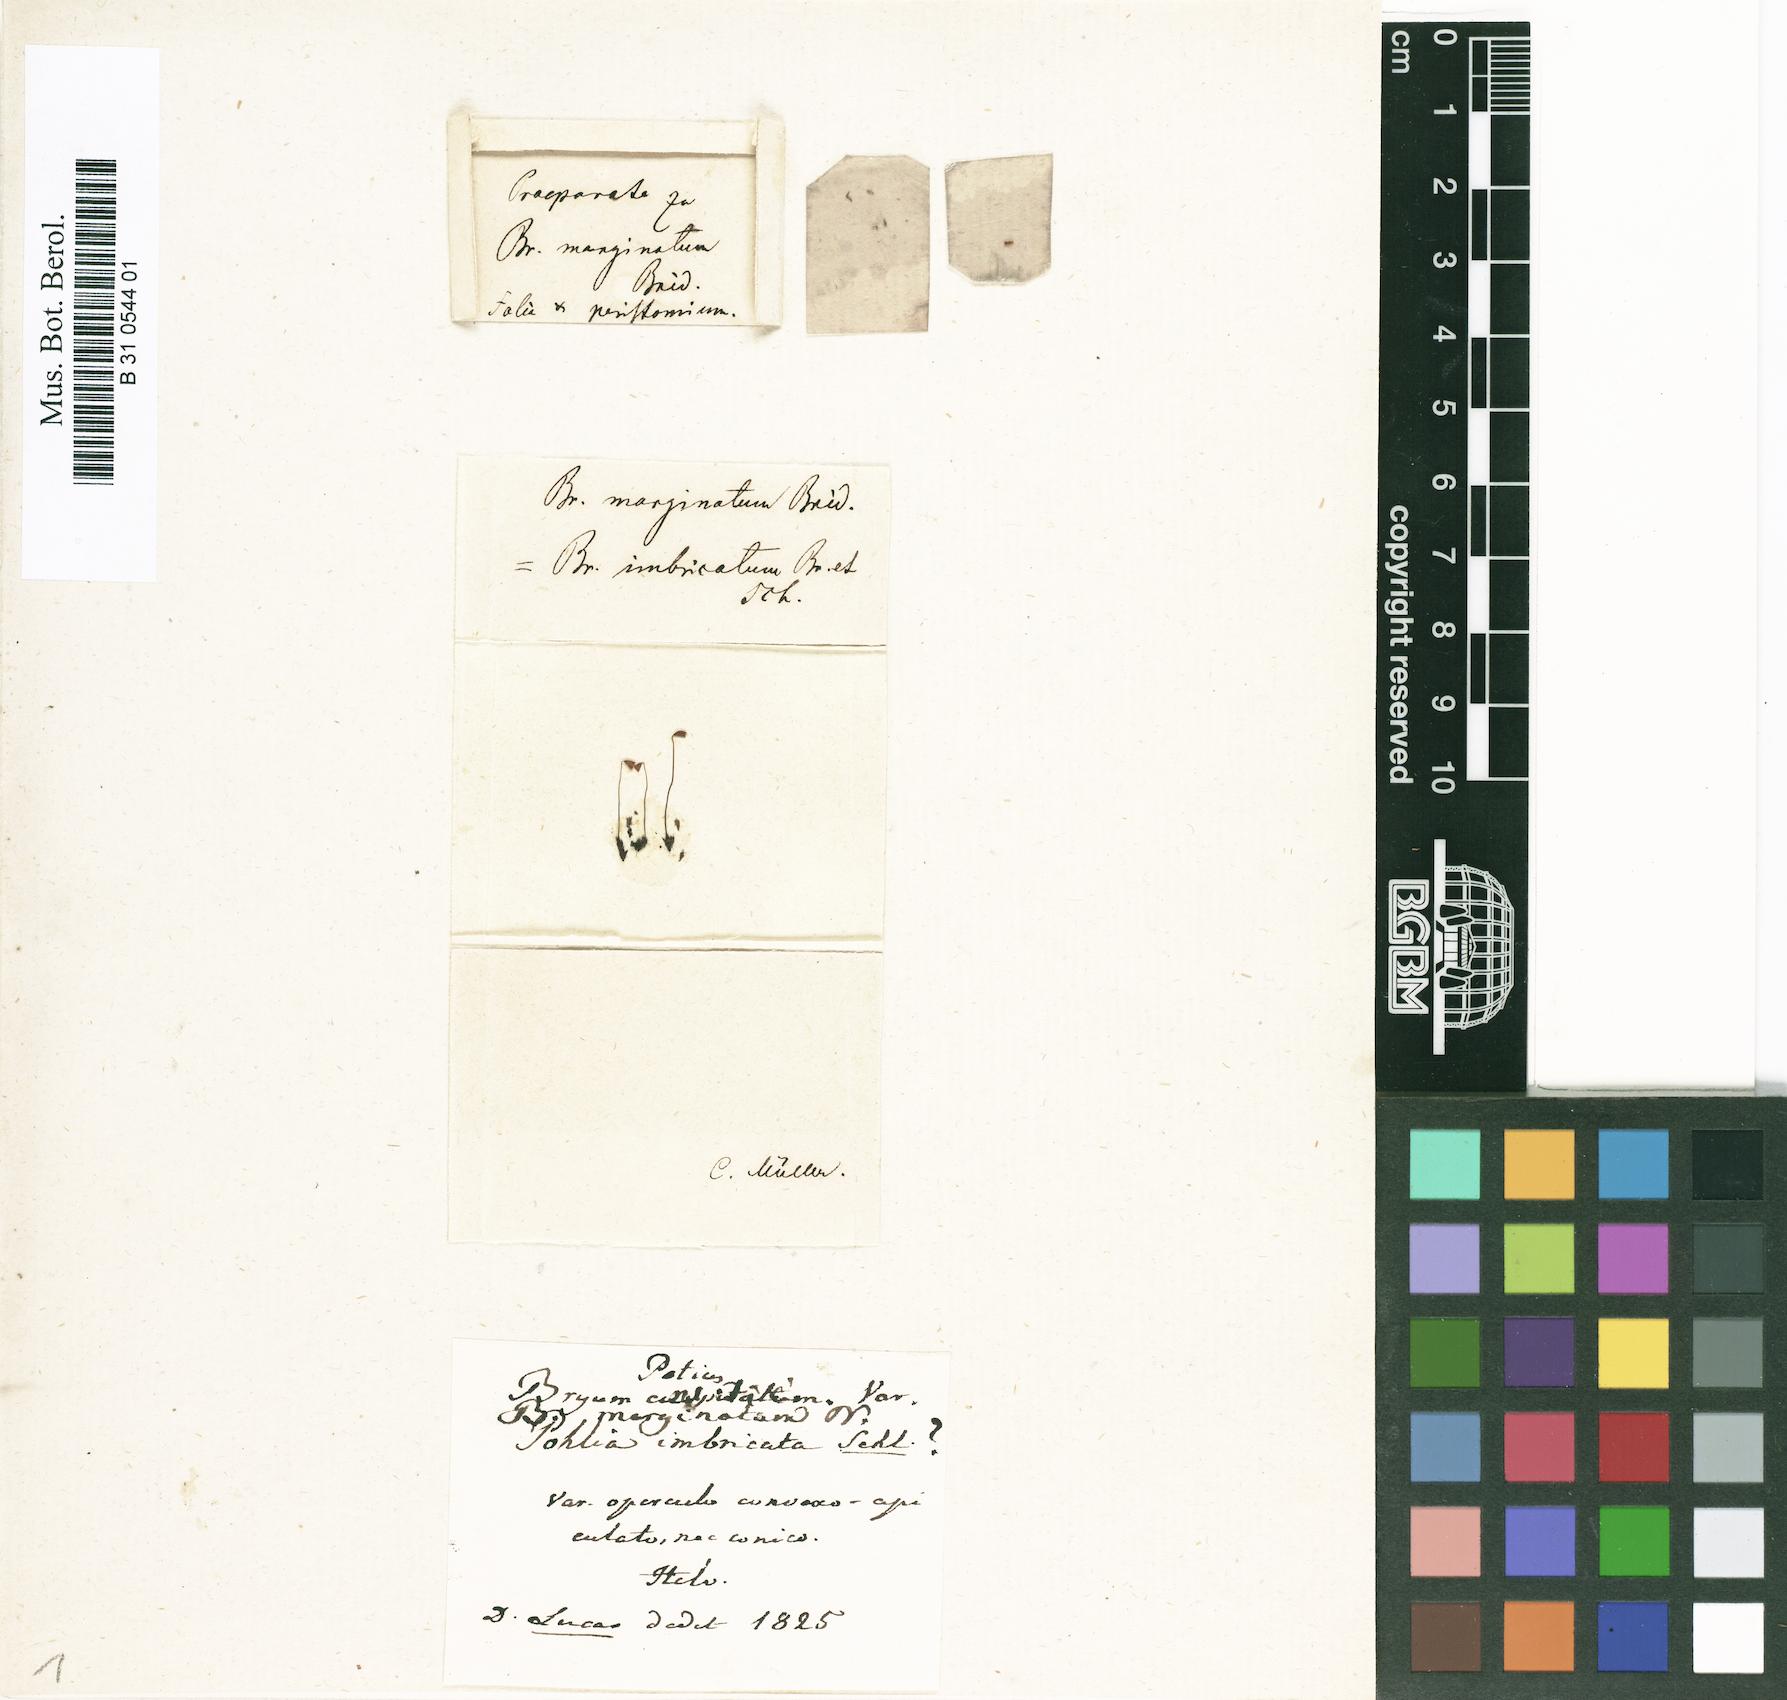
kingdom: Plantae
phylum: Bryophyta
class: Bryopsida
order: Bryales
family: Bryaceae
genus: Bryum
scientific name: Bryum marginatum
